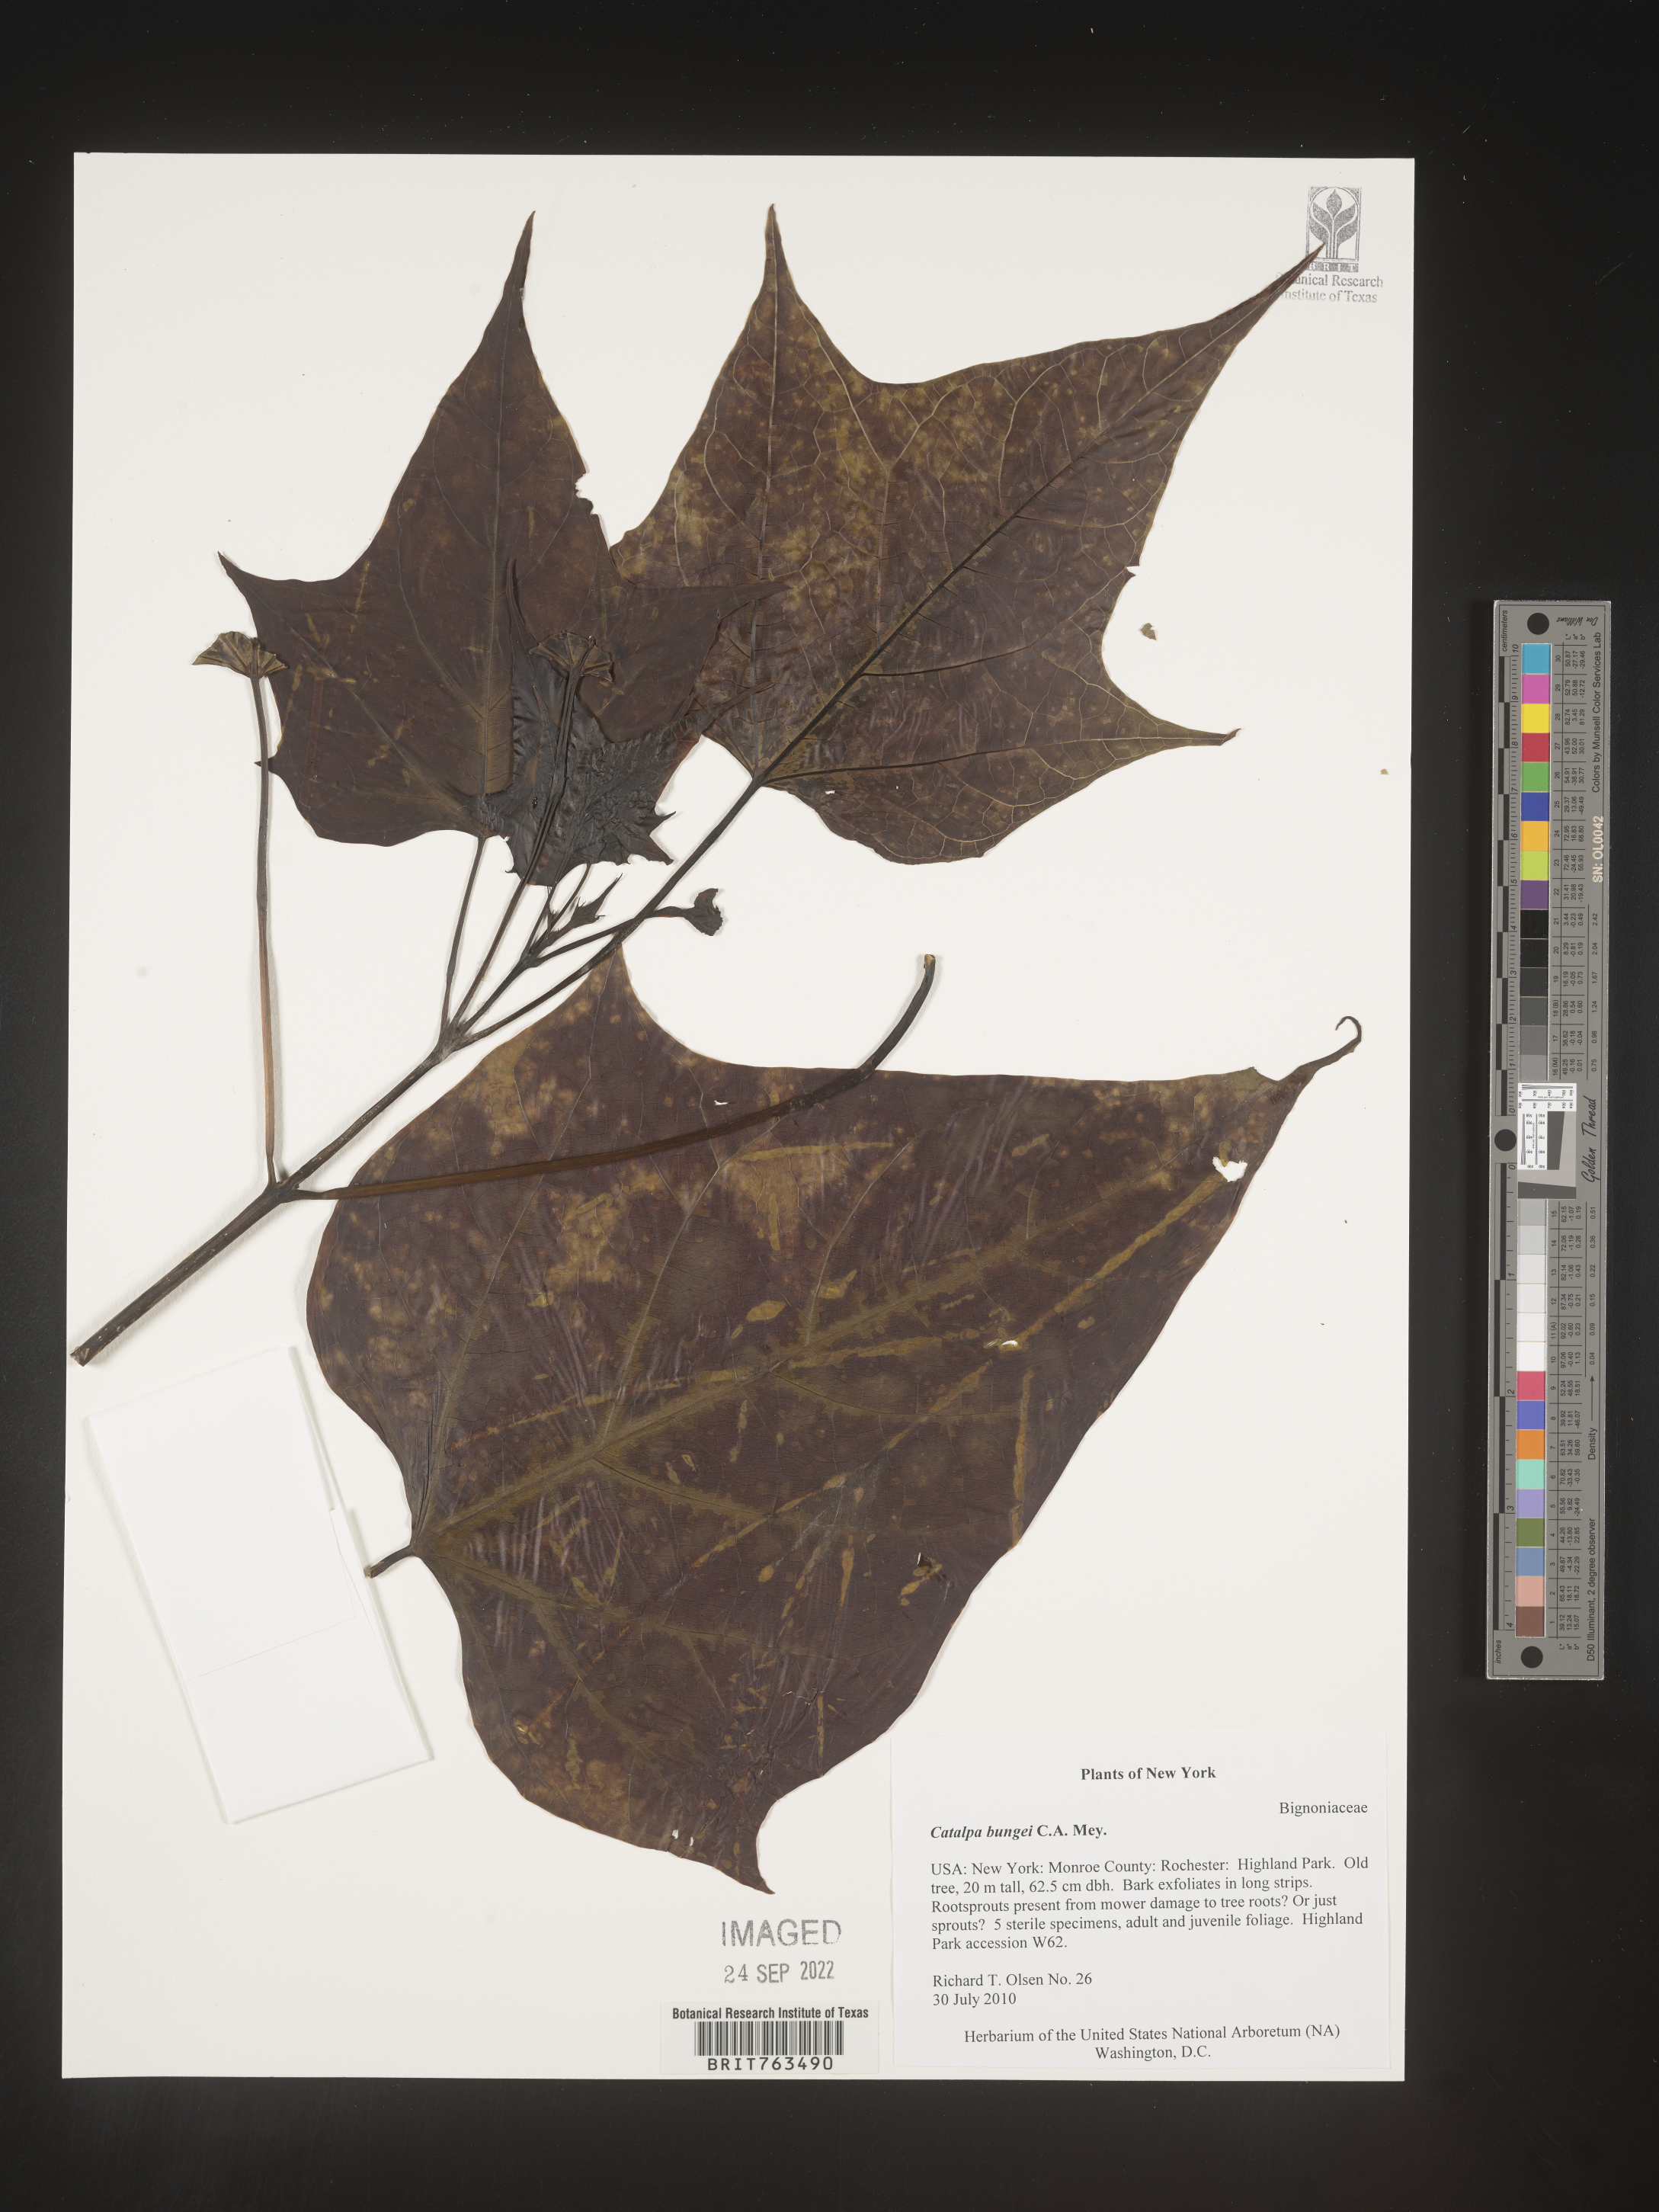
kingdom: Plantae
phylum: Tracheophyta
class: Magnoliopsida
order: Lamiales
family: Bignoniaceae
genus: Catalpa
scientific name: Catalpa bungei
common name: Manchurian catalpa
